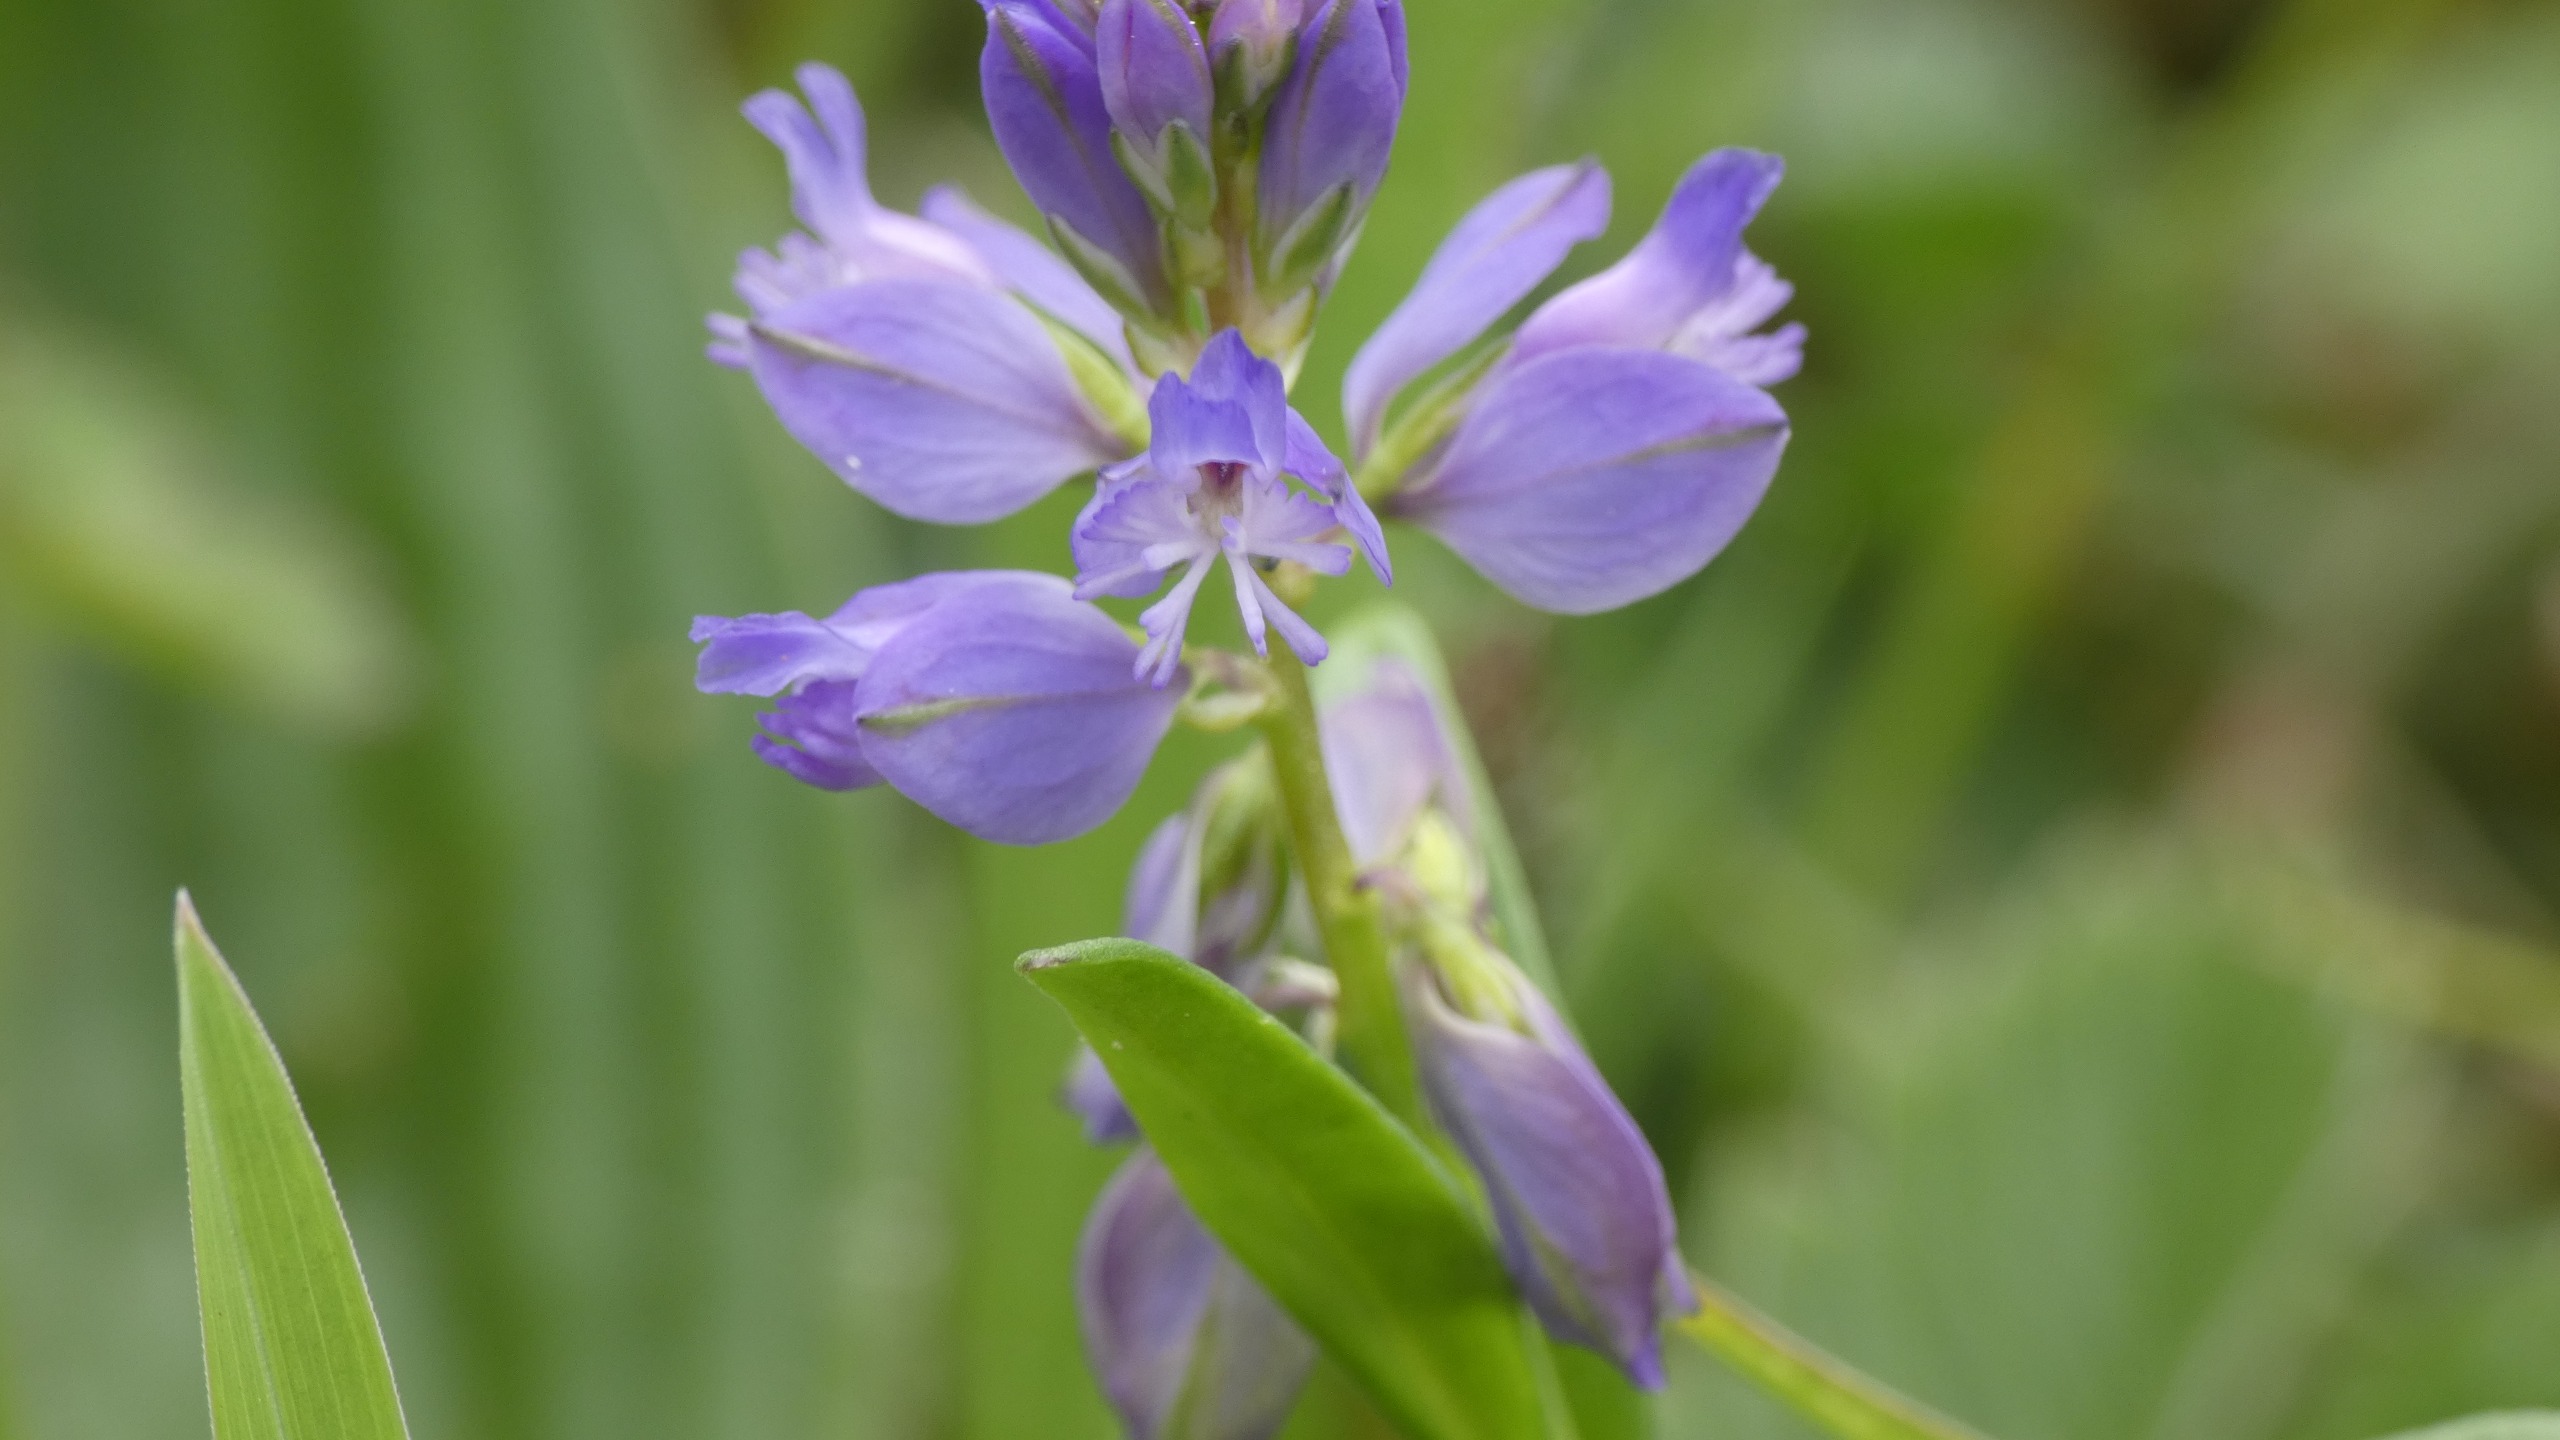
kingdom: Plantae
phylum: Tracheophyta
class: Magnoliopsida
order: Fabales
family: Polygalaceae
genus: Polygala
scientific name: Polygala vulgaris
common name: Almindelig mælkeurt
